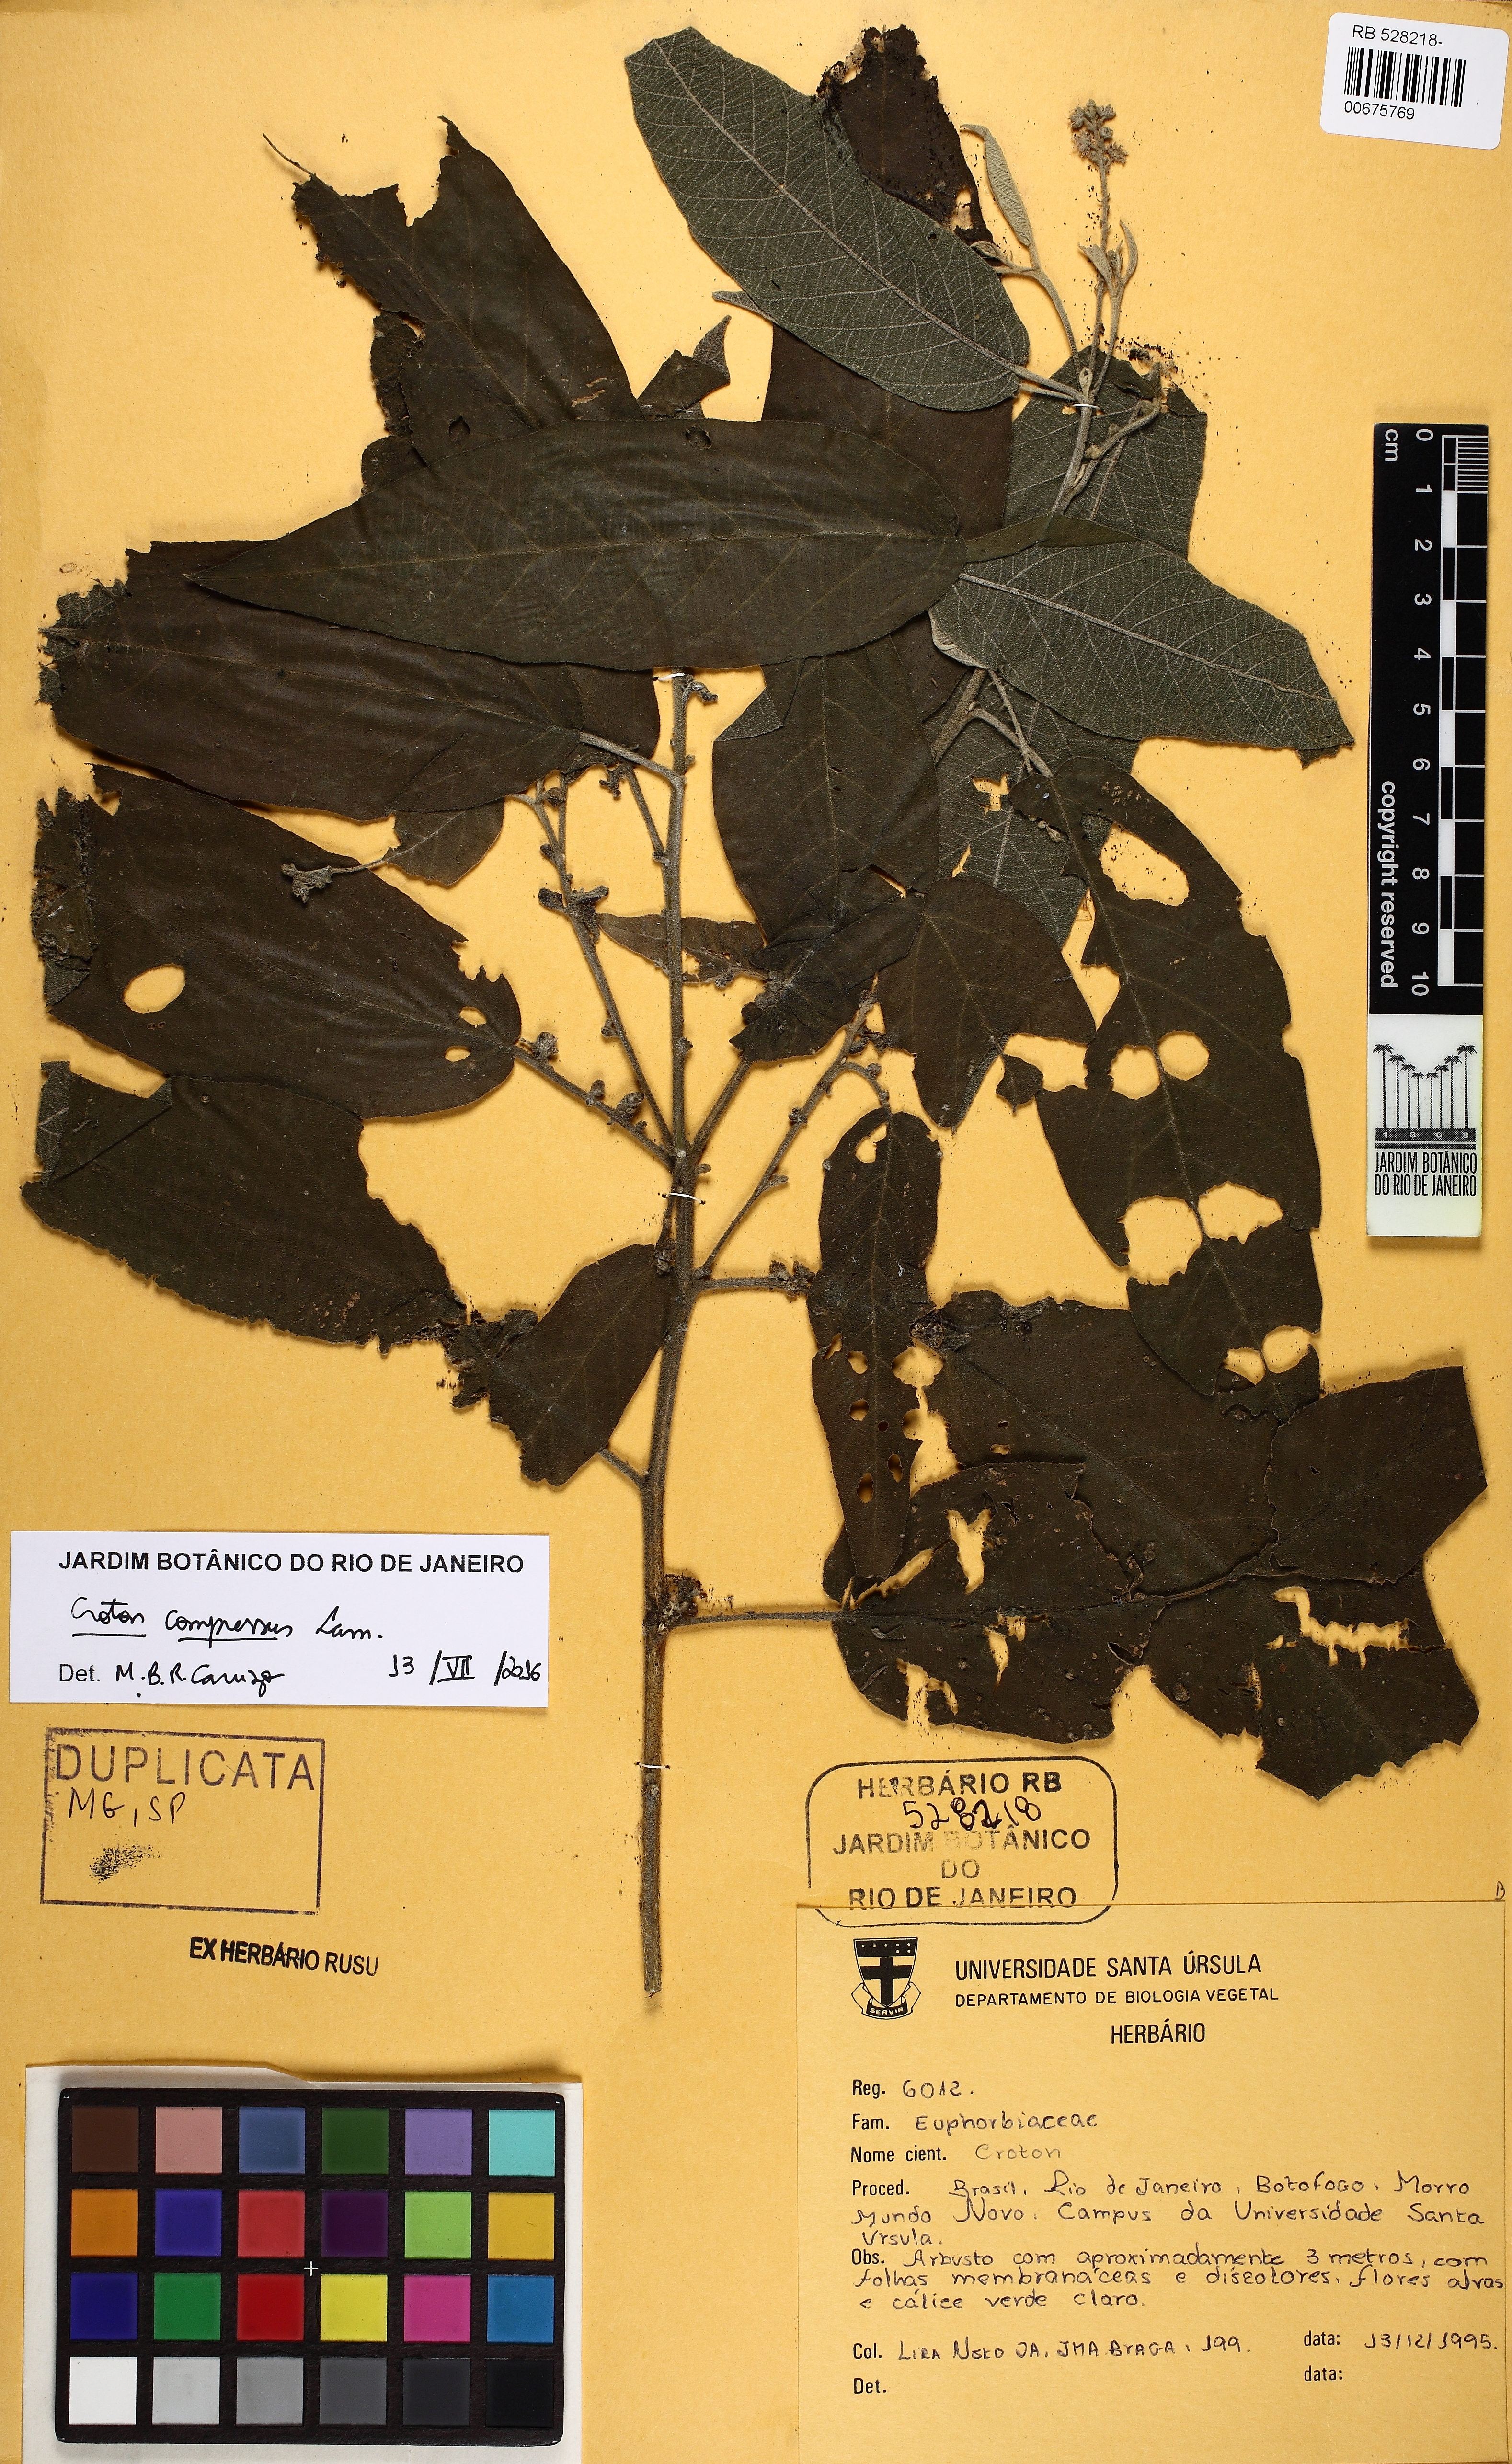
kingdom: Plantae
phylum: Tracheophyta
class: Magnoliopsida
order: Malpighiales
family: Euphorbiaceae
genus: Croton
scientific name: Croton compressus
